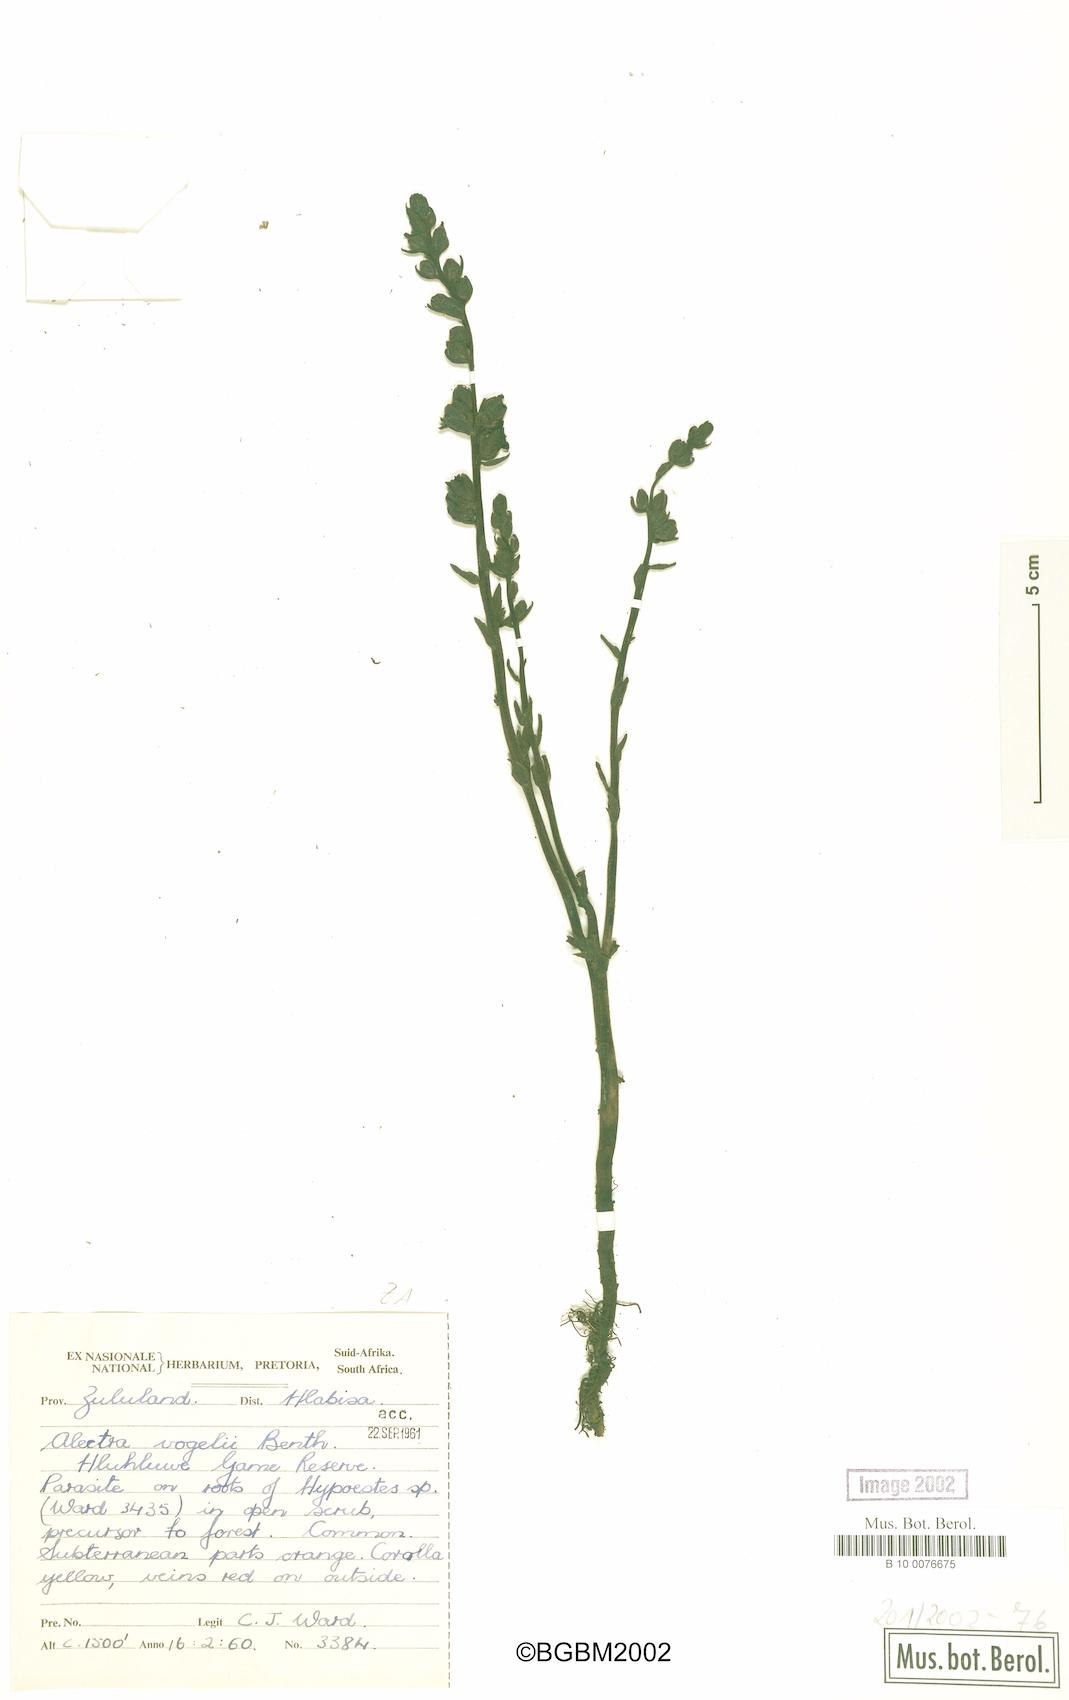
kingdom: Plantae
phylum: Tracheophyta
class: Magnoliopsida
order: Lamiales
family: Orobanchaceae
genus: Alectra
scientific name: Alectra vogelii
